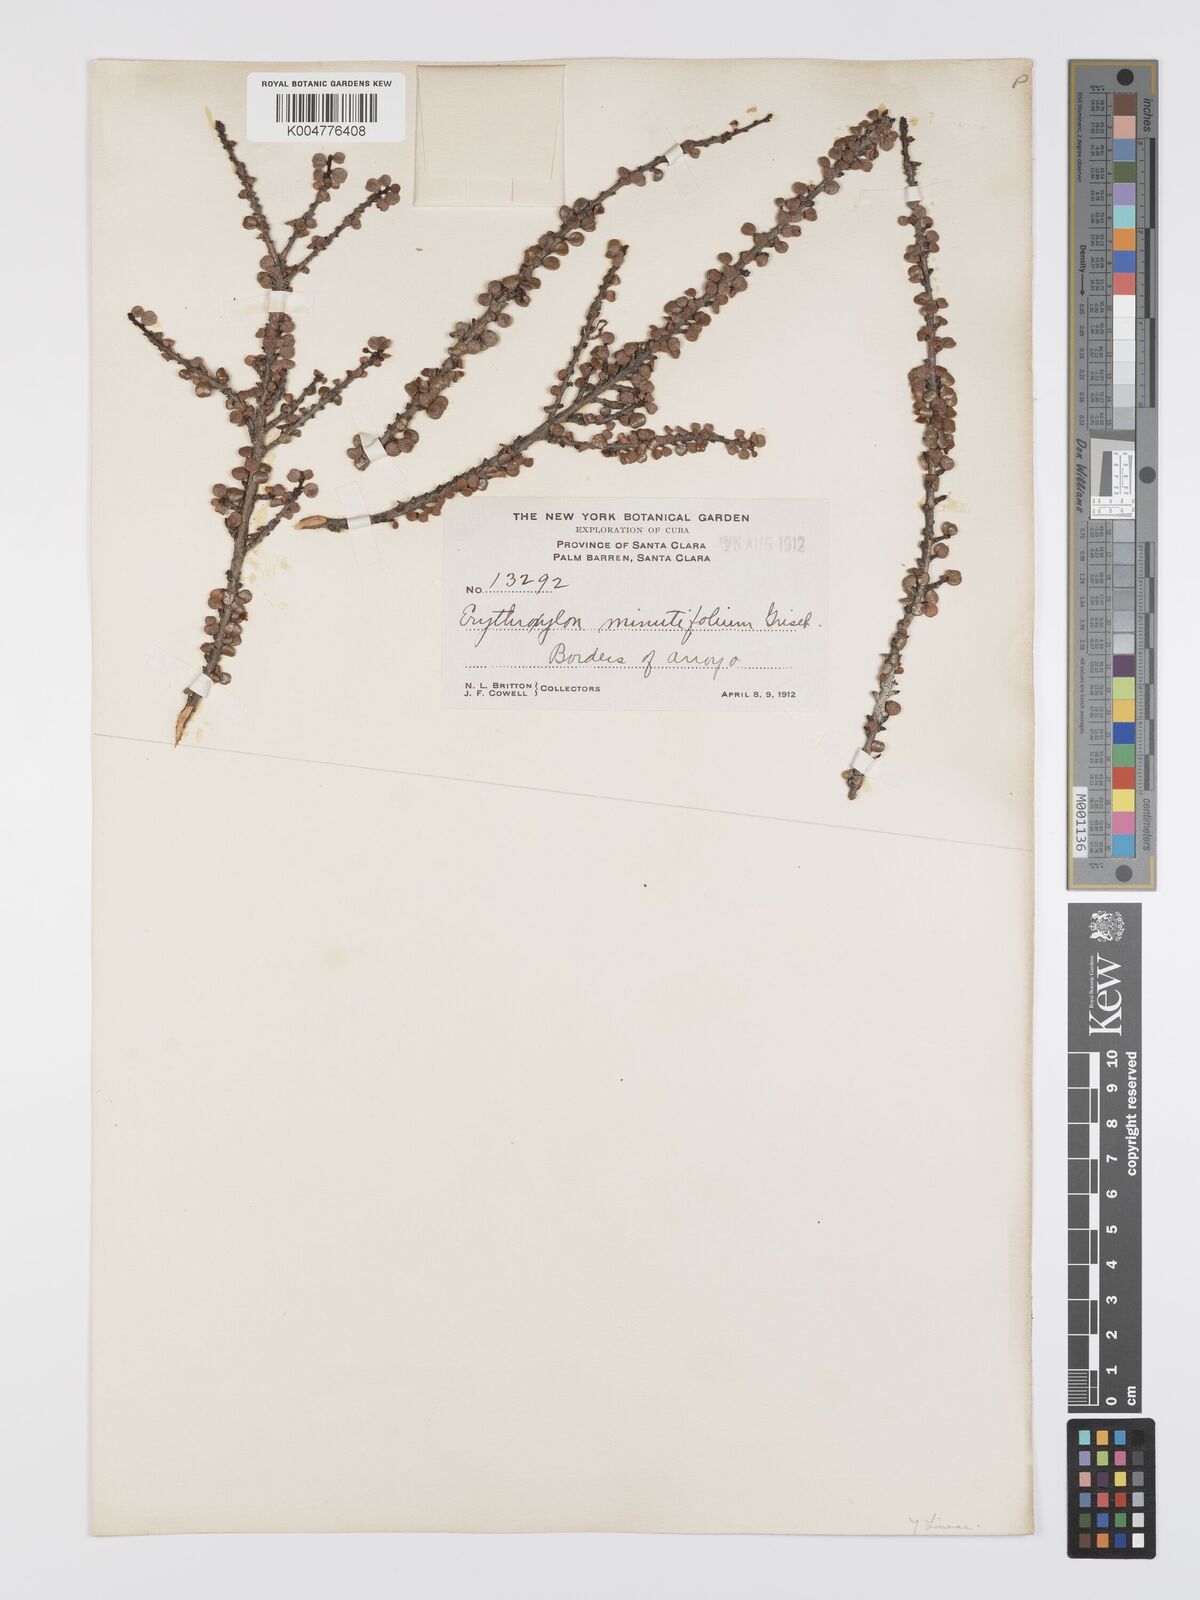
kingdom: Plantae
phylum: Tracheophyta
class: Magnoliopsida
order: Malpighiales
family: Erythroxylaceae
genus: Erythroxylum
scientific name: Erythroxylum minutifolium
